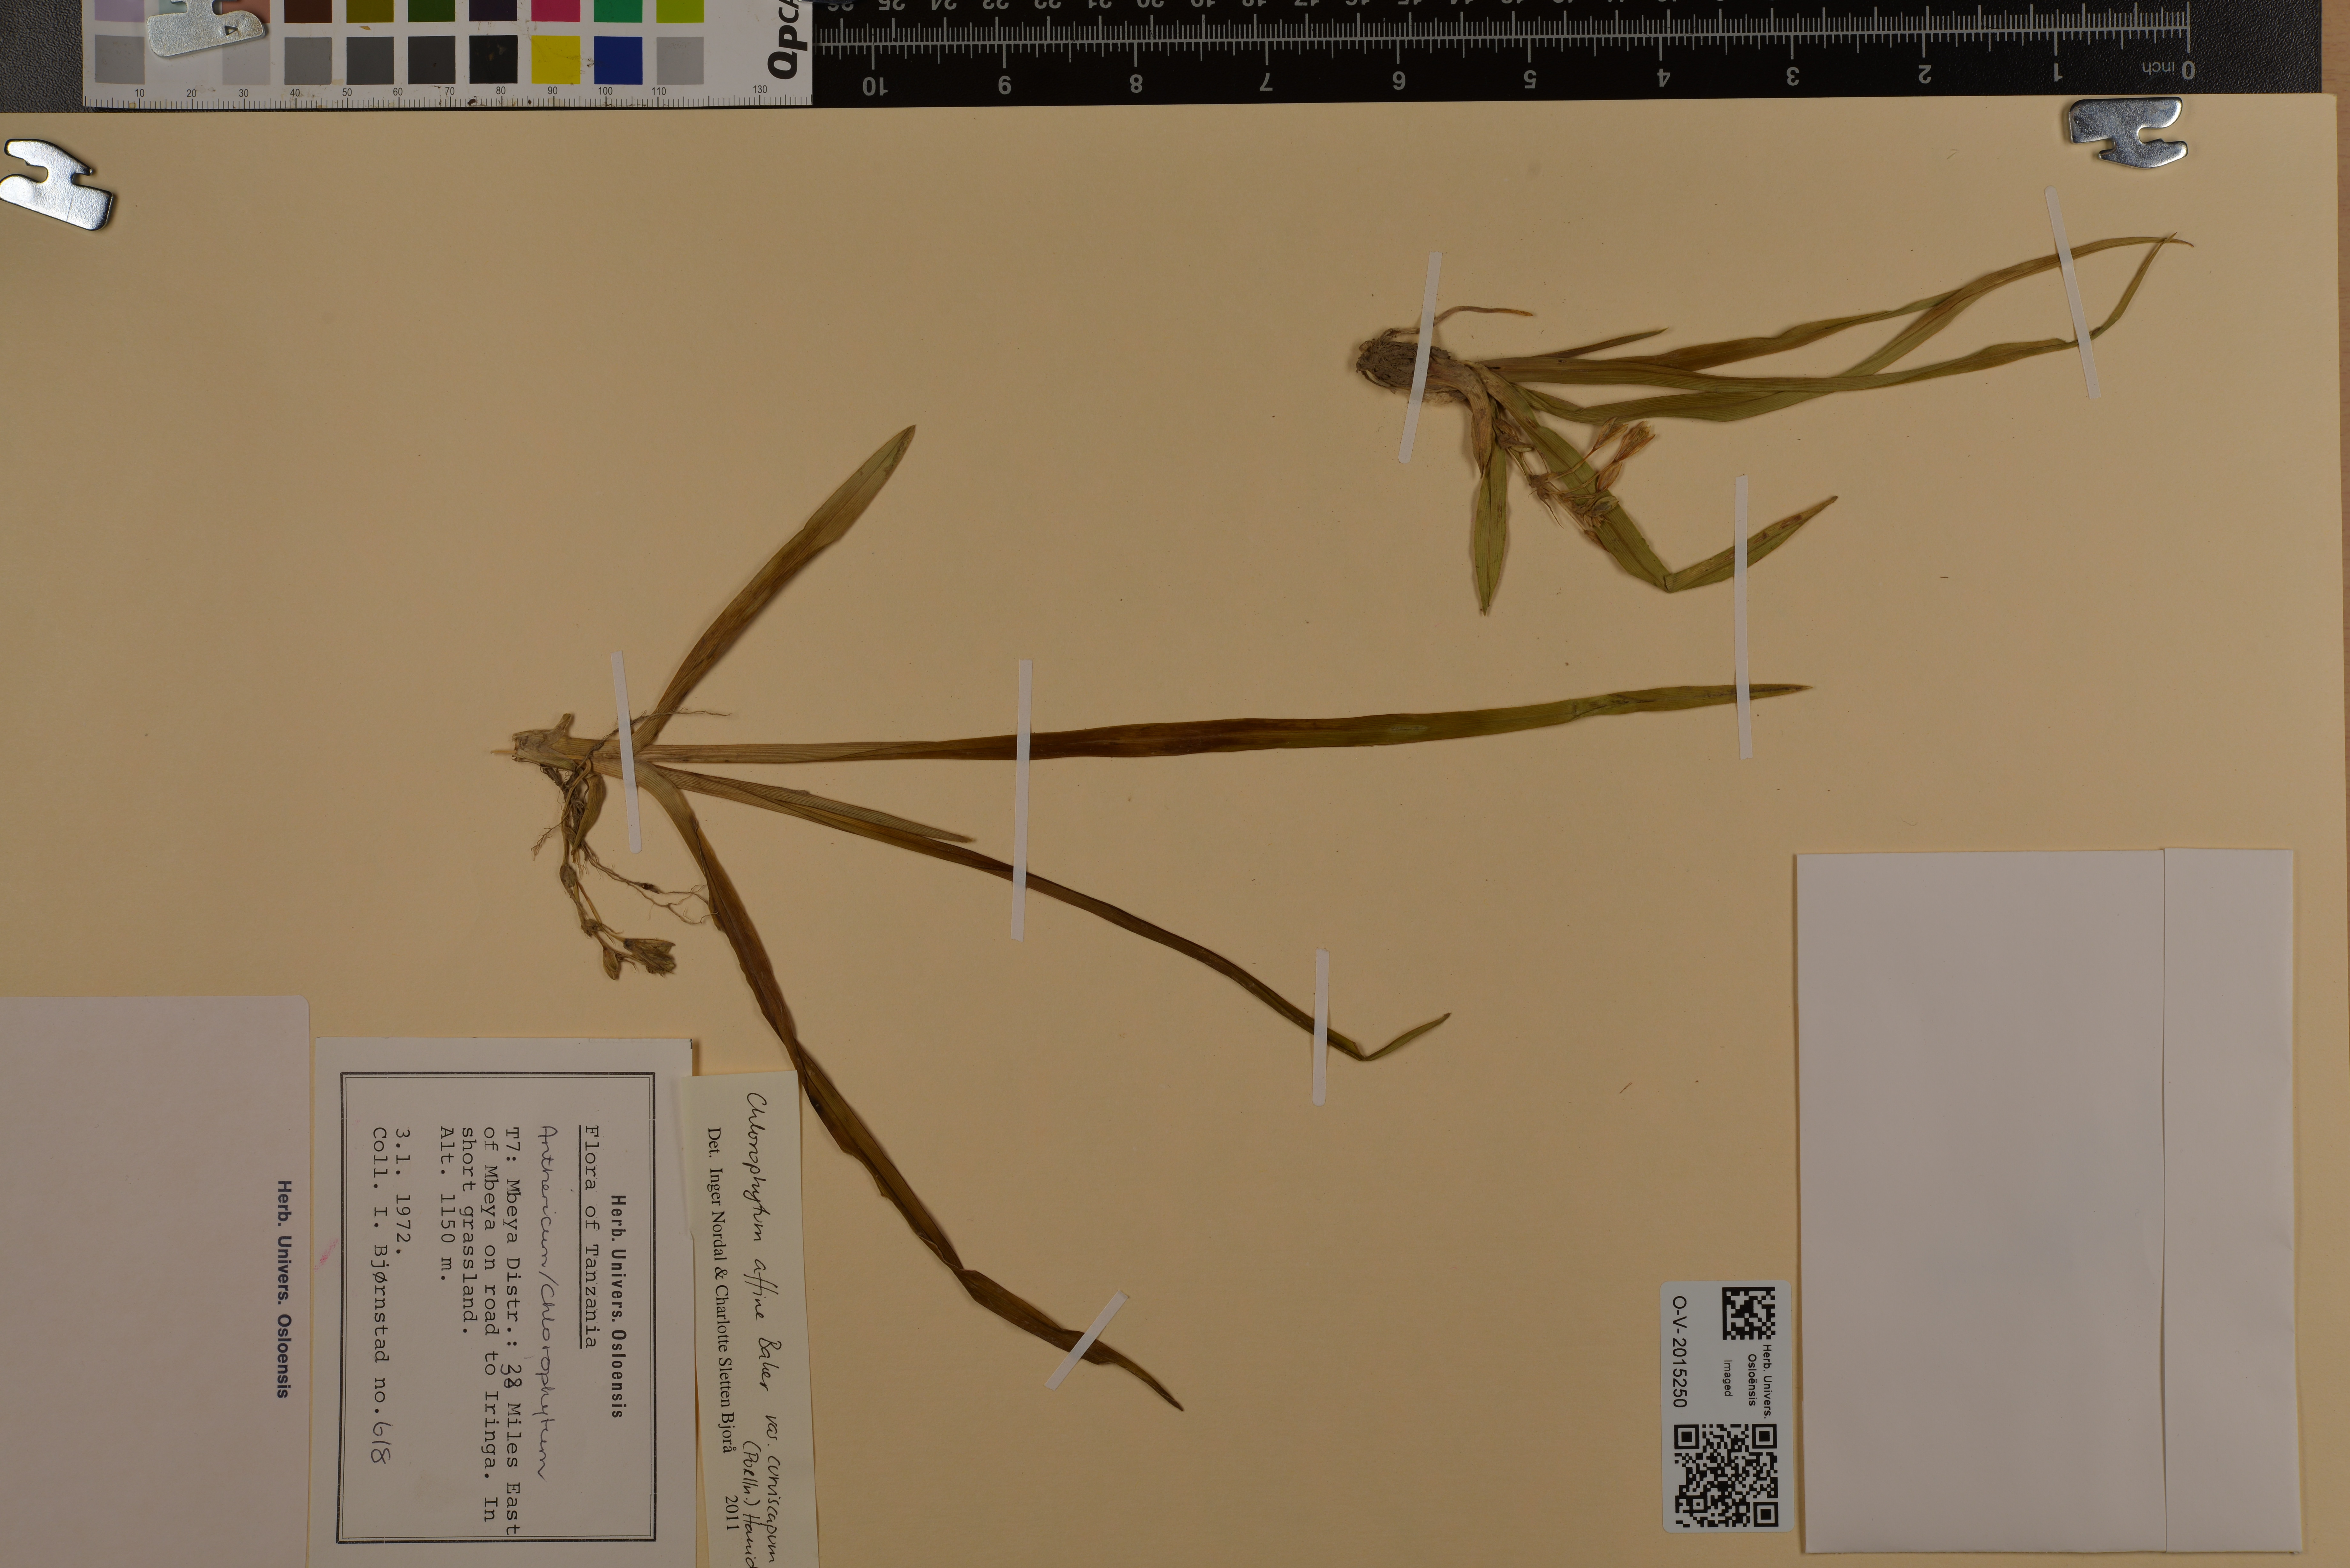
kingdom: Plantae
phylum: Tracheophyta
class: Liliopsida
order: Asparagales
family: Asparagaceae
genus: Chlorophytum
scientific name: Chlorophytum tordense
